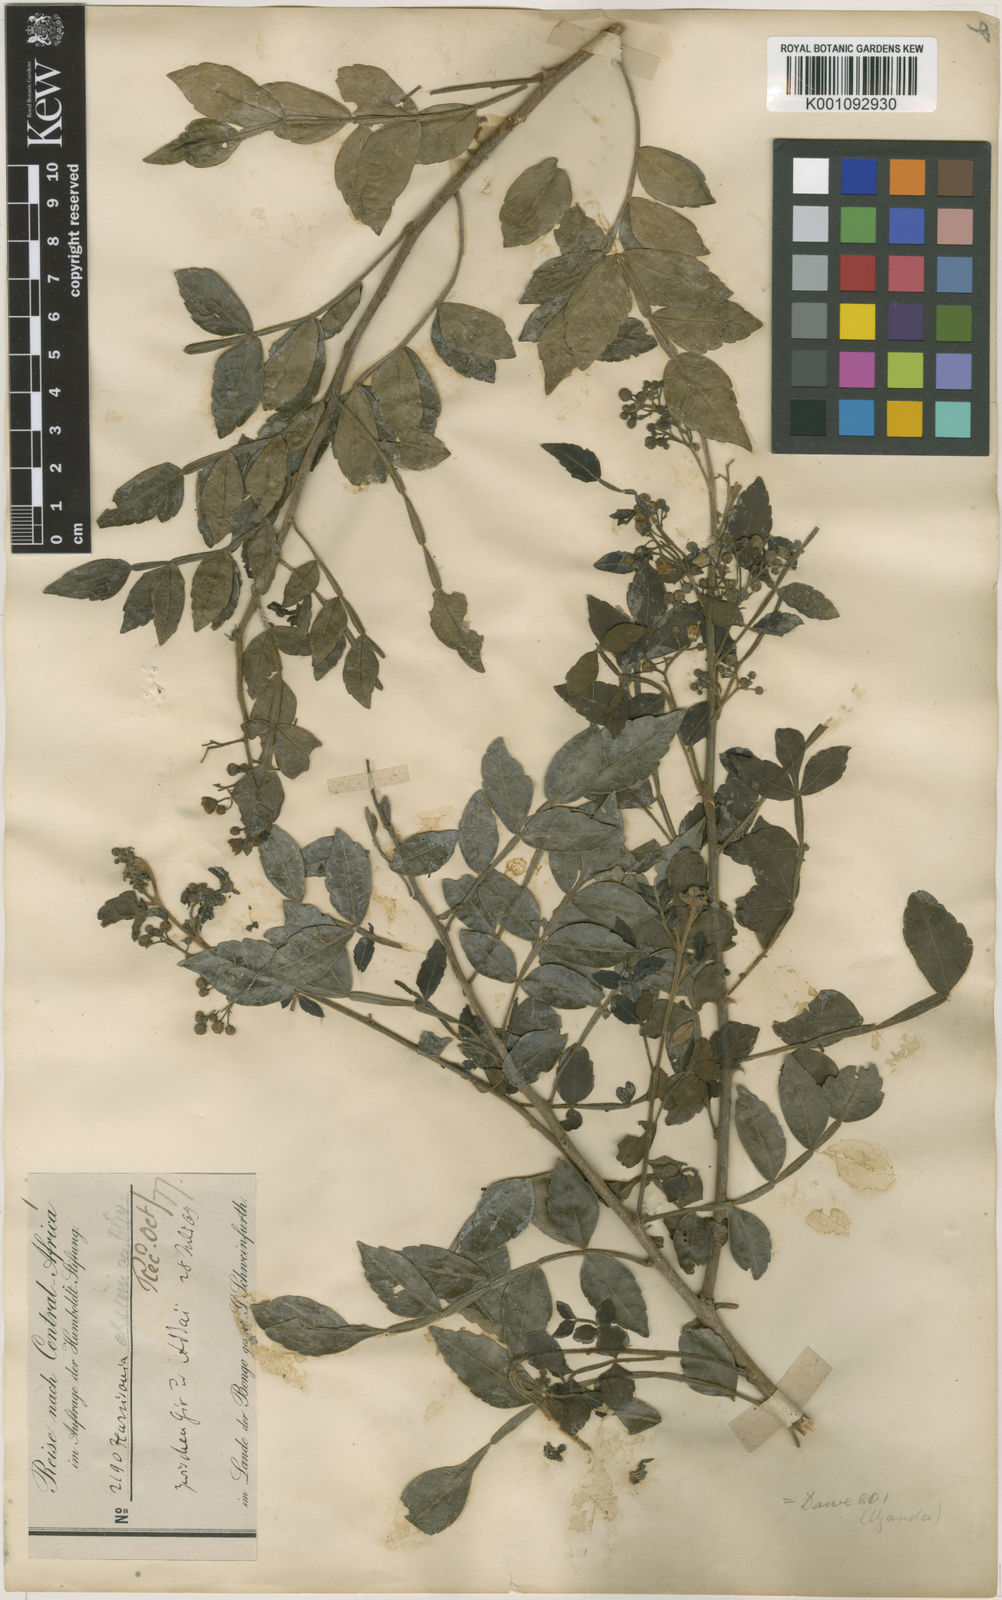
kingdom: Plantae
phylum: Tracheophyta
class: Magnoliopsida
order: Sapindales
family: Rutaceae
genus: Harrisonia
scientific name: Harrisonia abyssinica
